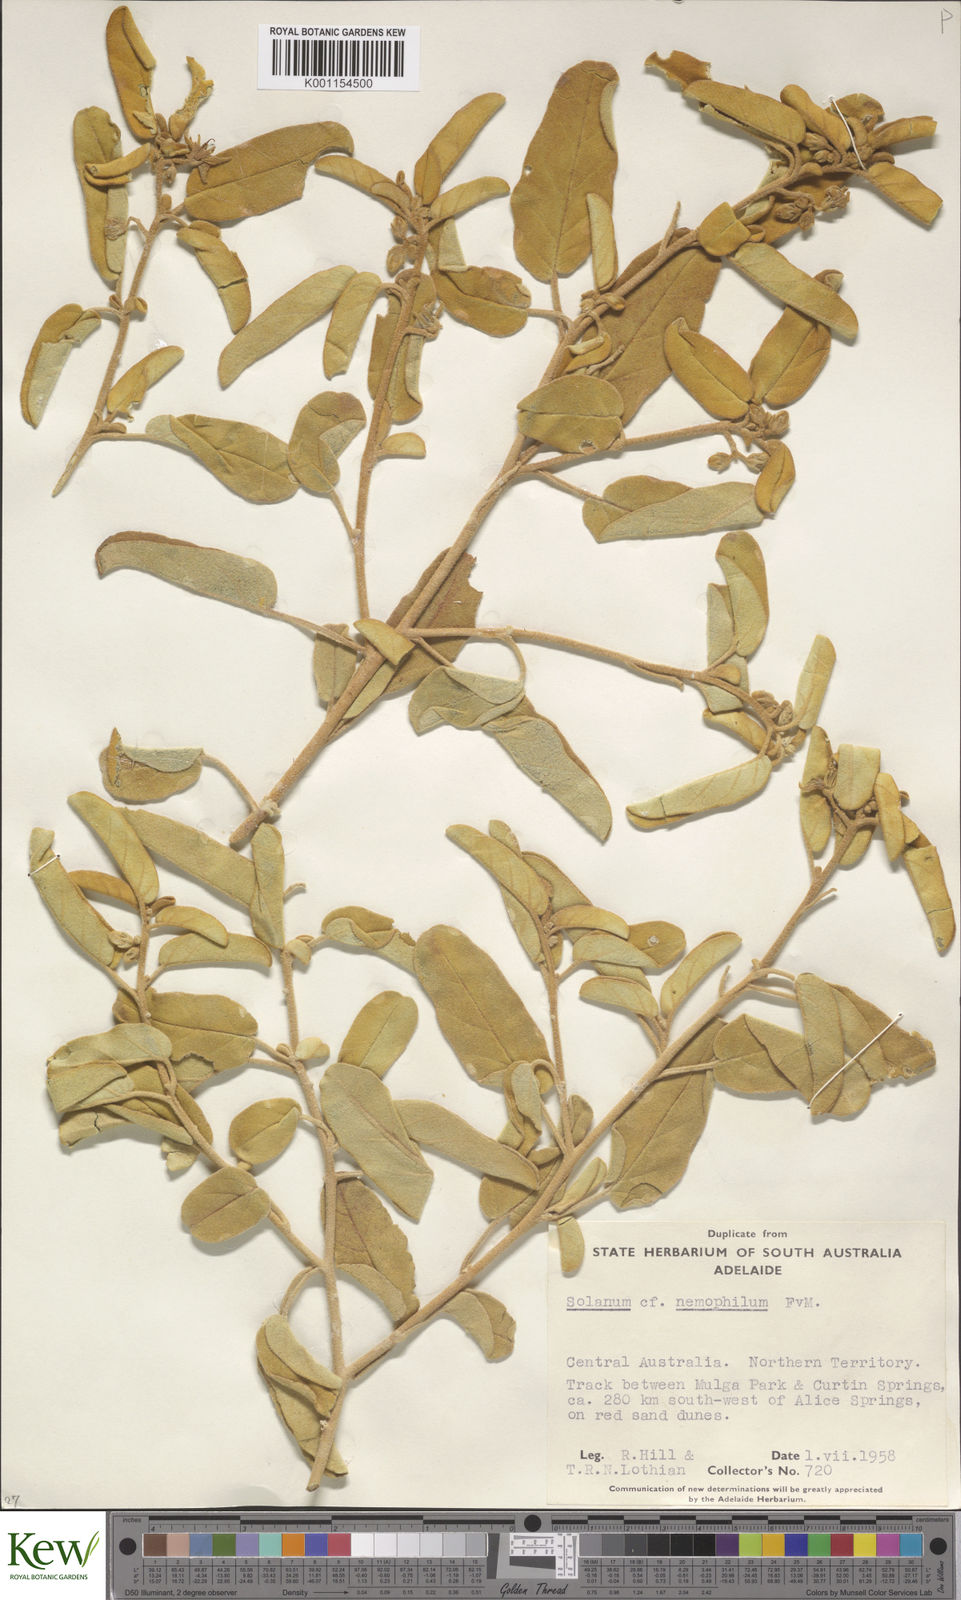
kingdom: Plantae
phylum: Tracheophyta
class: Magnoliopsida
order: Solanales
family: Solanaceae
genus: Solanum
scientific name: Solanum centrale
